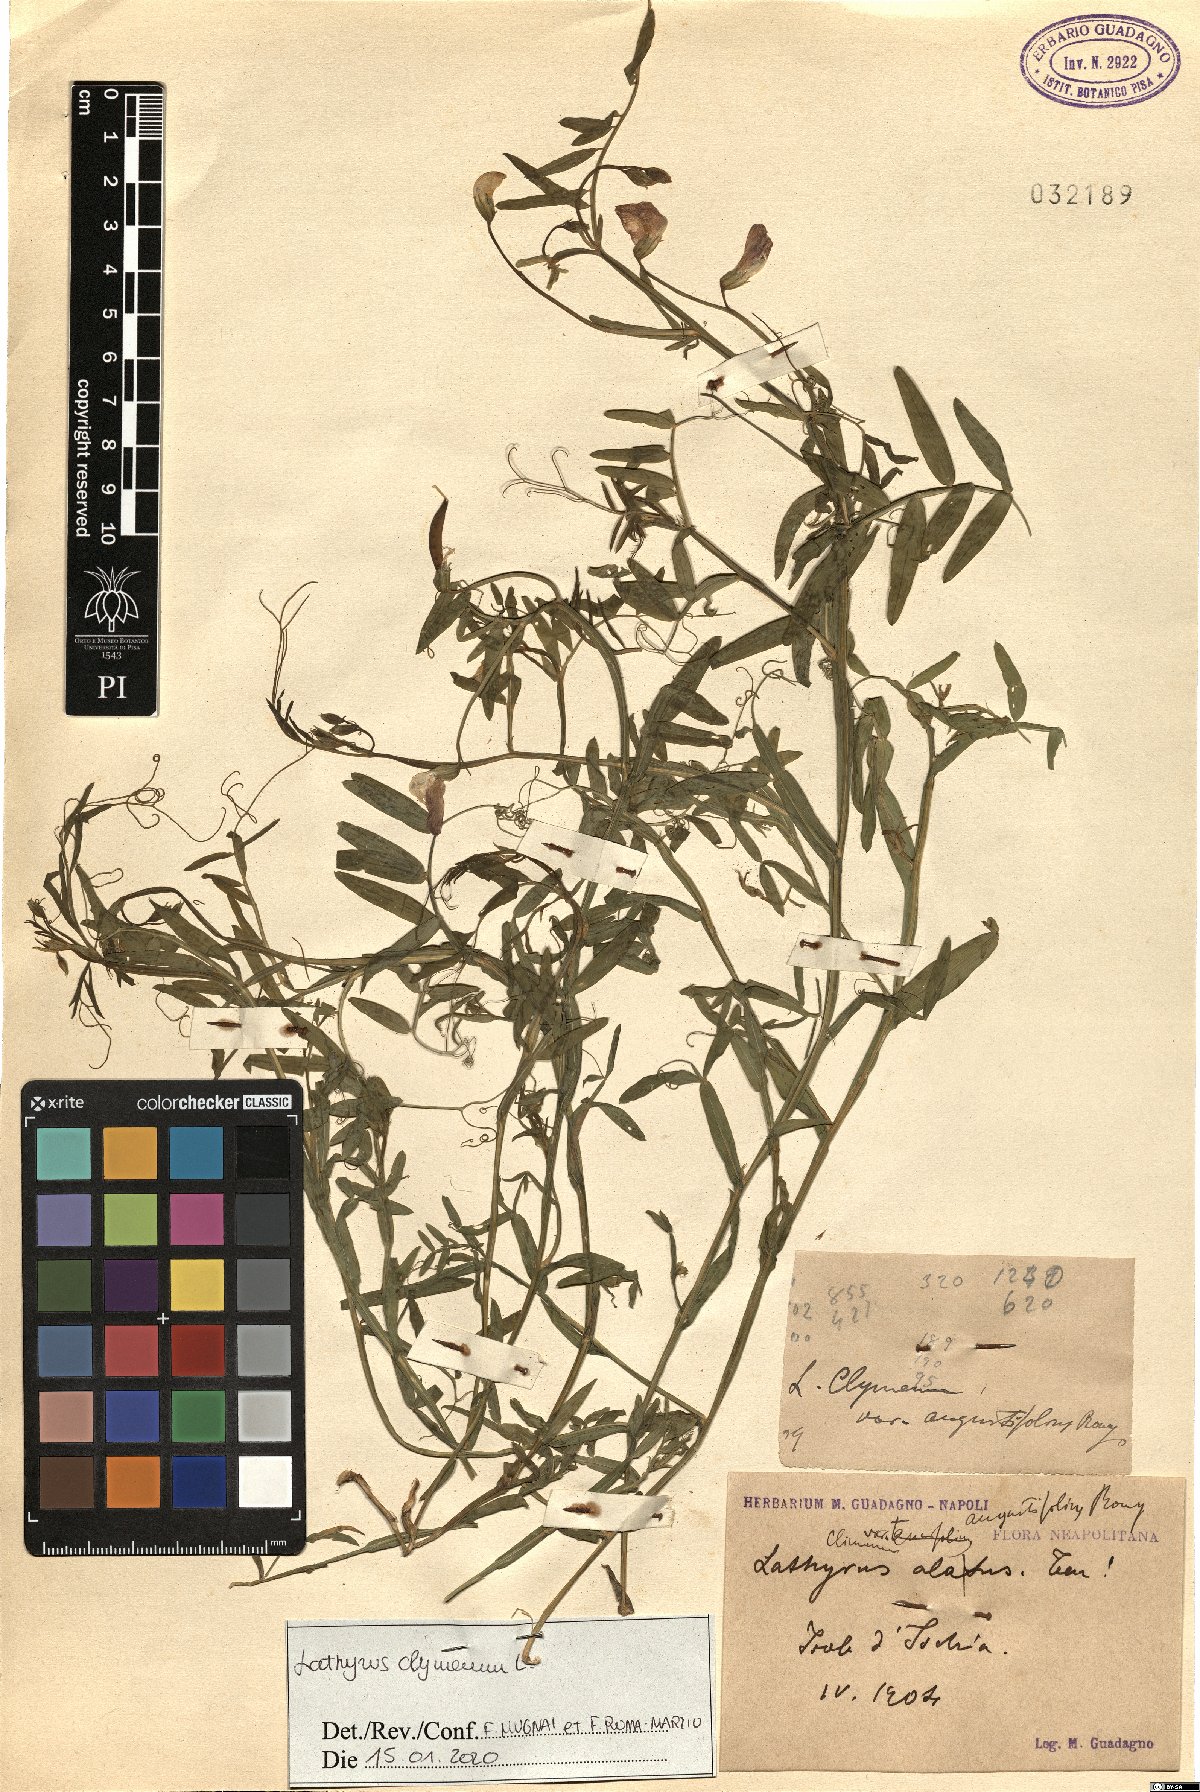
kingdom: Plantae
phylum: Tracheophyta
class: Magnoliopsida
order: Fabales
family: Fabaceae
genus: Lathyrus
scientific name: Lathyrus clymenum
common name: Spanish vetchling
